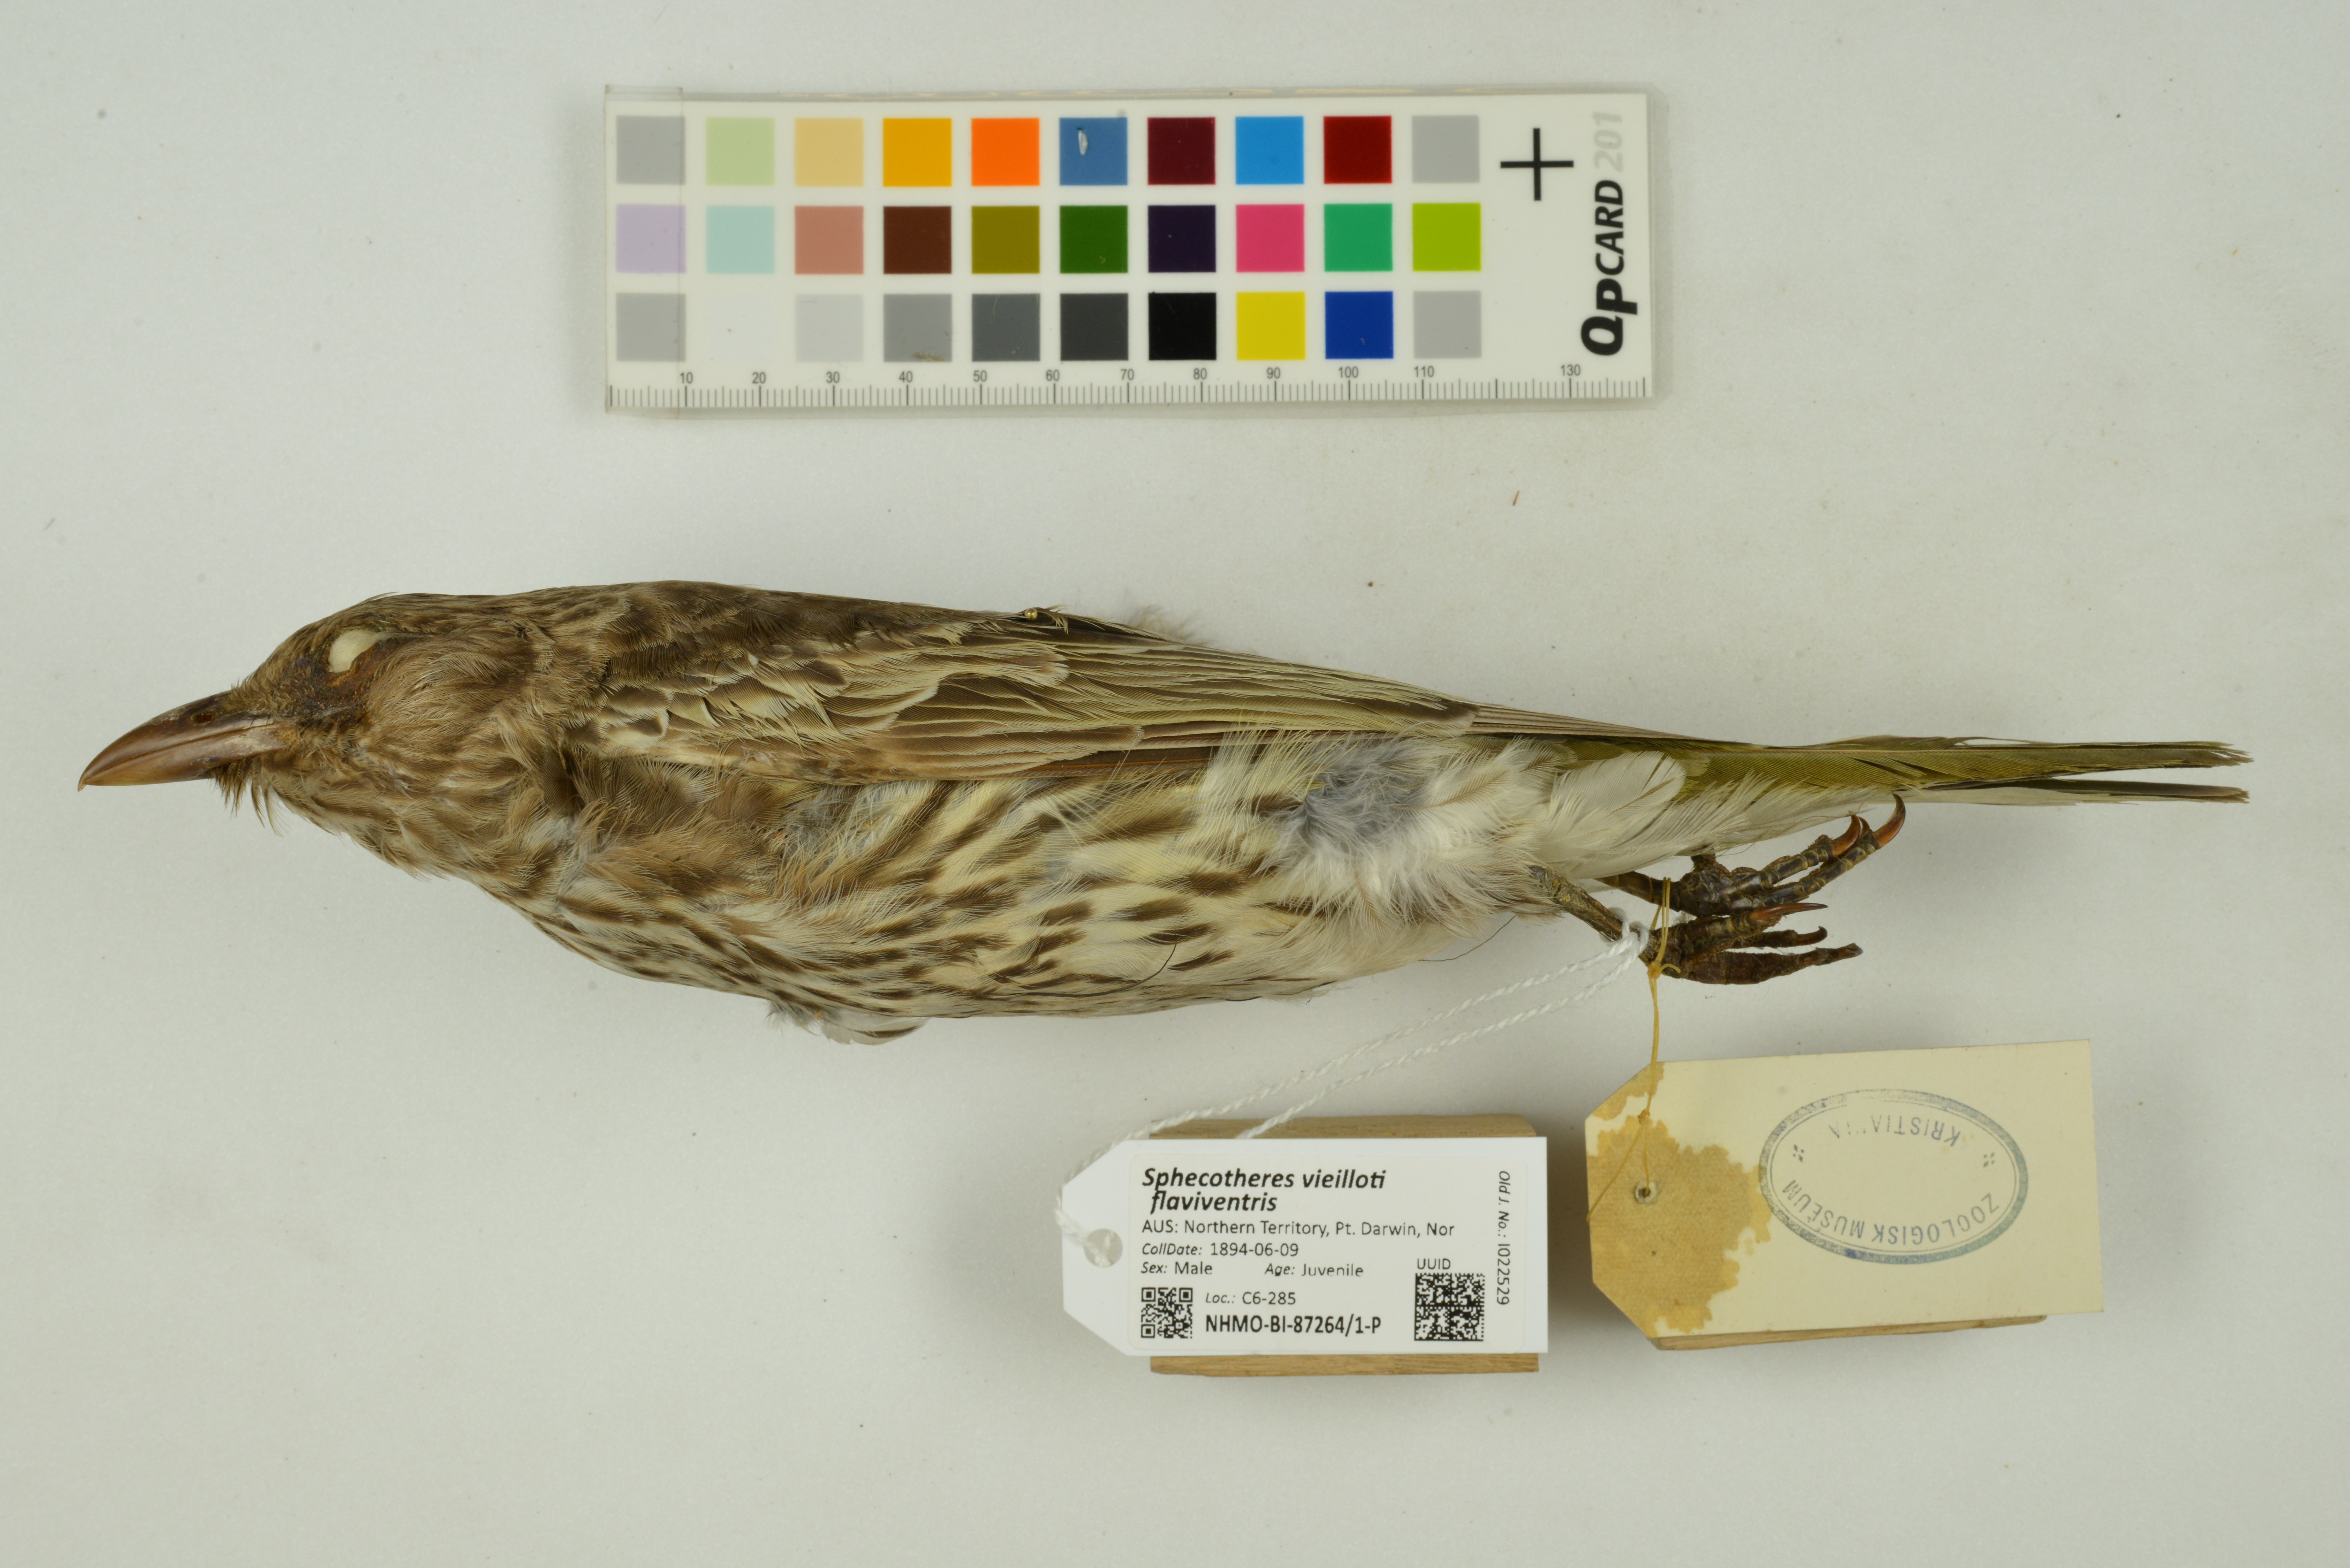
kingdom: Animalia
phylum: Chordata
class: Aves
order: Passeriformes
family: Oriolidae
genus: Sphecotheres
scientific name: Sphecotheres vieilloti
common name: Australasian figbird
